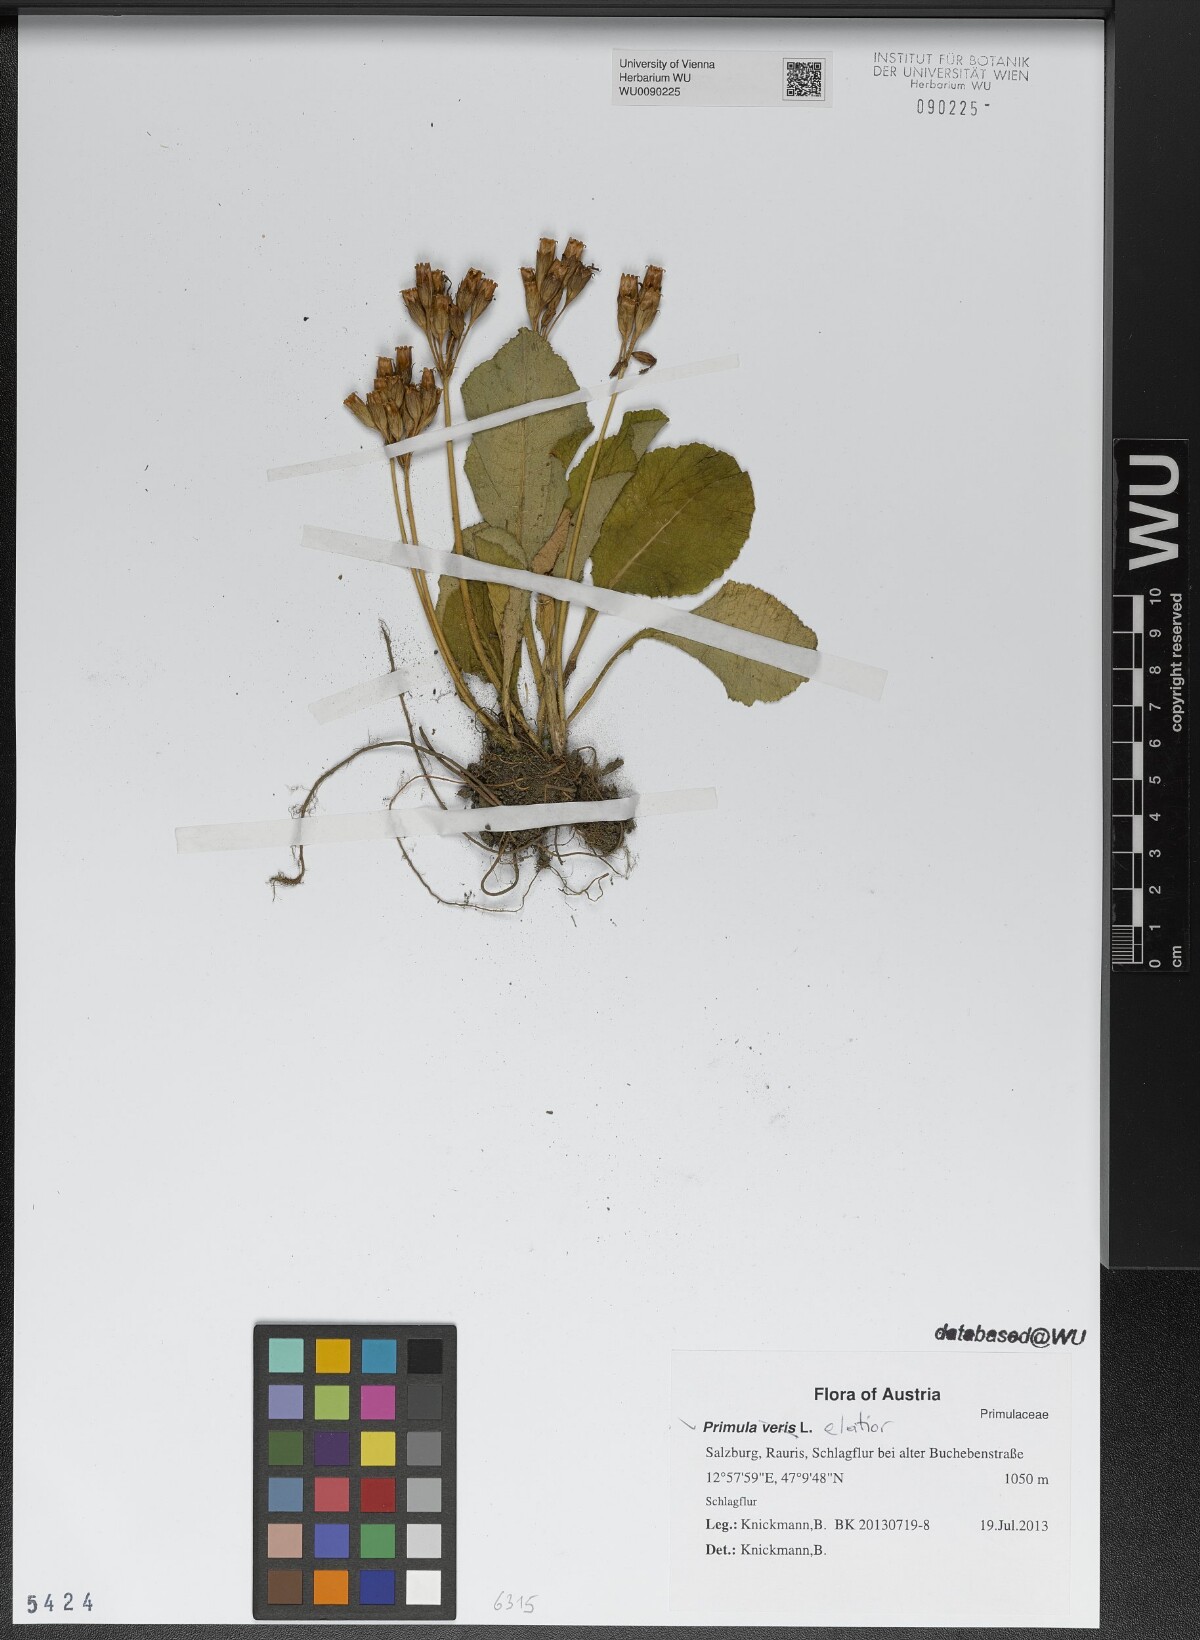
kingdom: Plantae
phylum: Tracheophyta
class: Magnoliopsida
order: Ericales
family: Primulaceae
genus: Primula
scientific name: Primula elatior
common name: Oxlip
